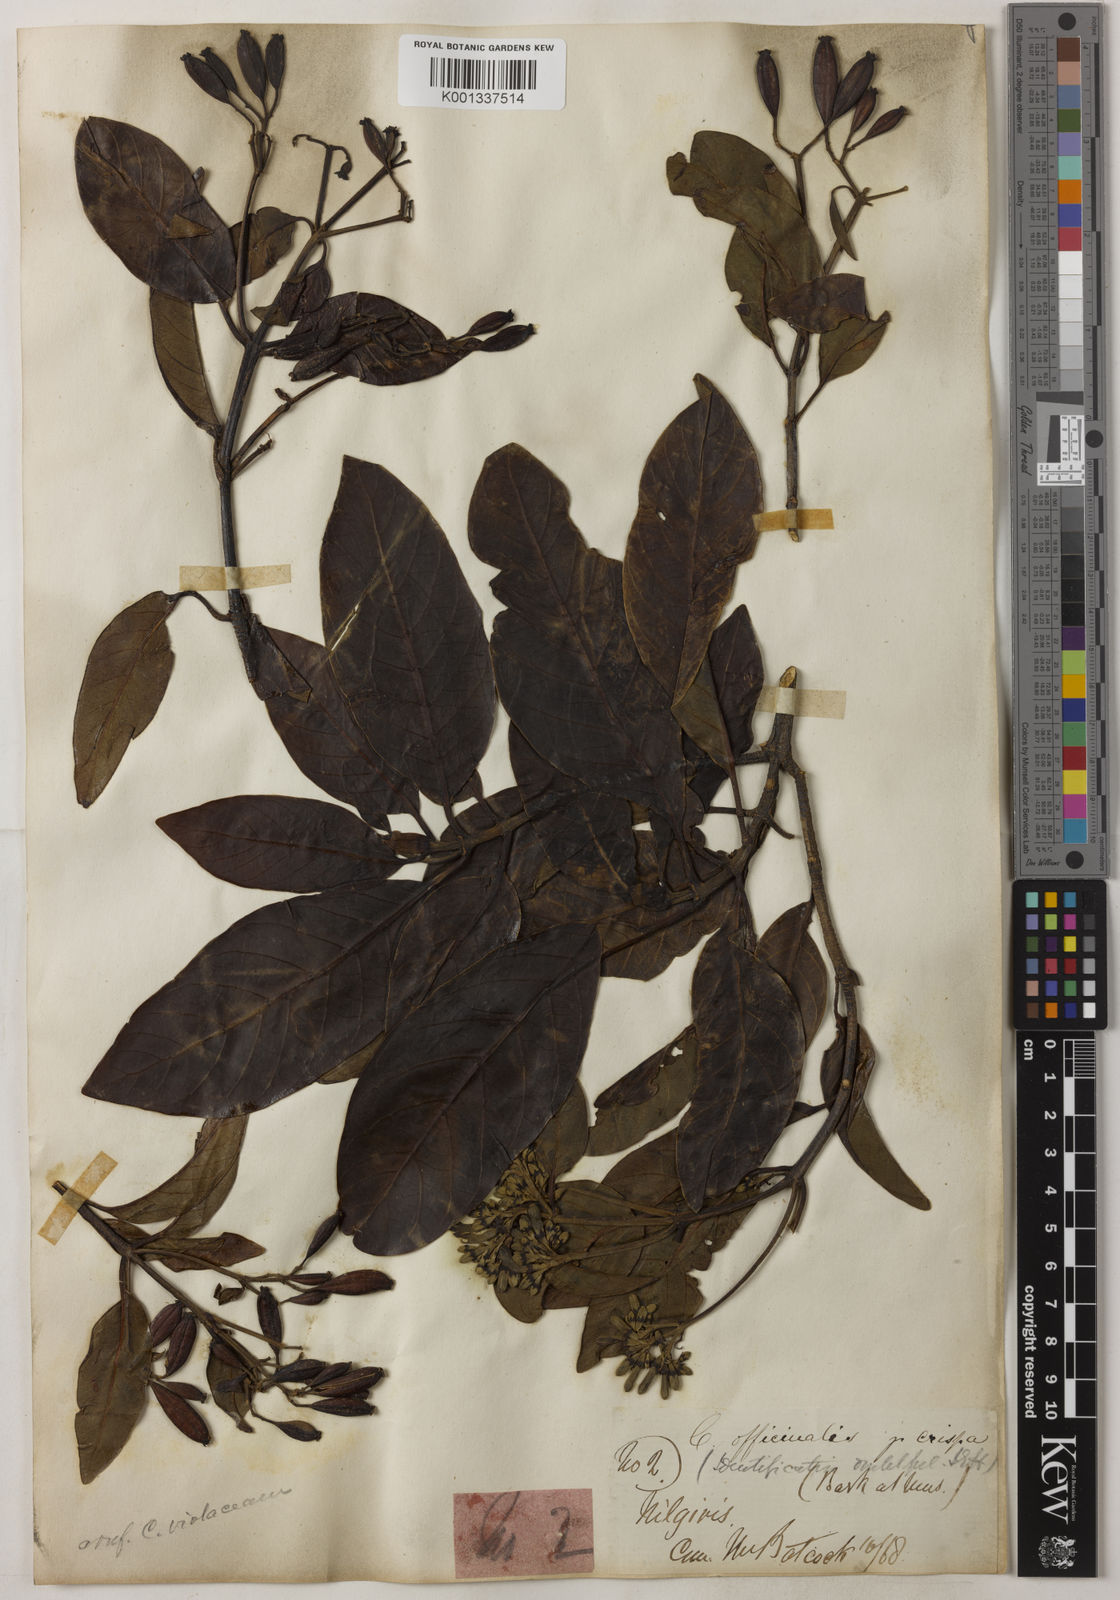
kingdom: Plantae
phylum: Tracheophyta
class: Magnoliopsida
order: Gentianales
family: Rubiaceae
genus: Cinchona
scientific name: Cinchona officinalis
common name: Lojabark
